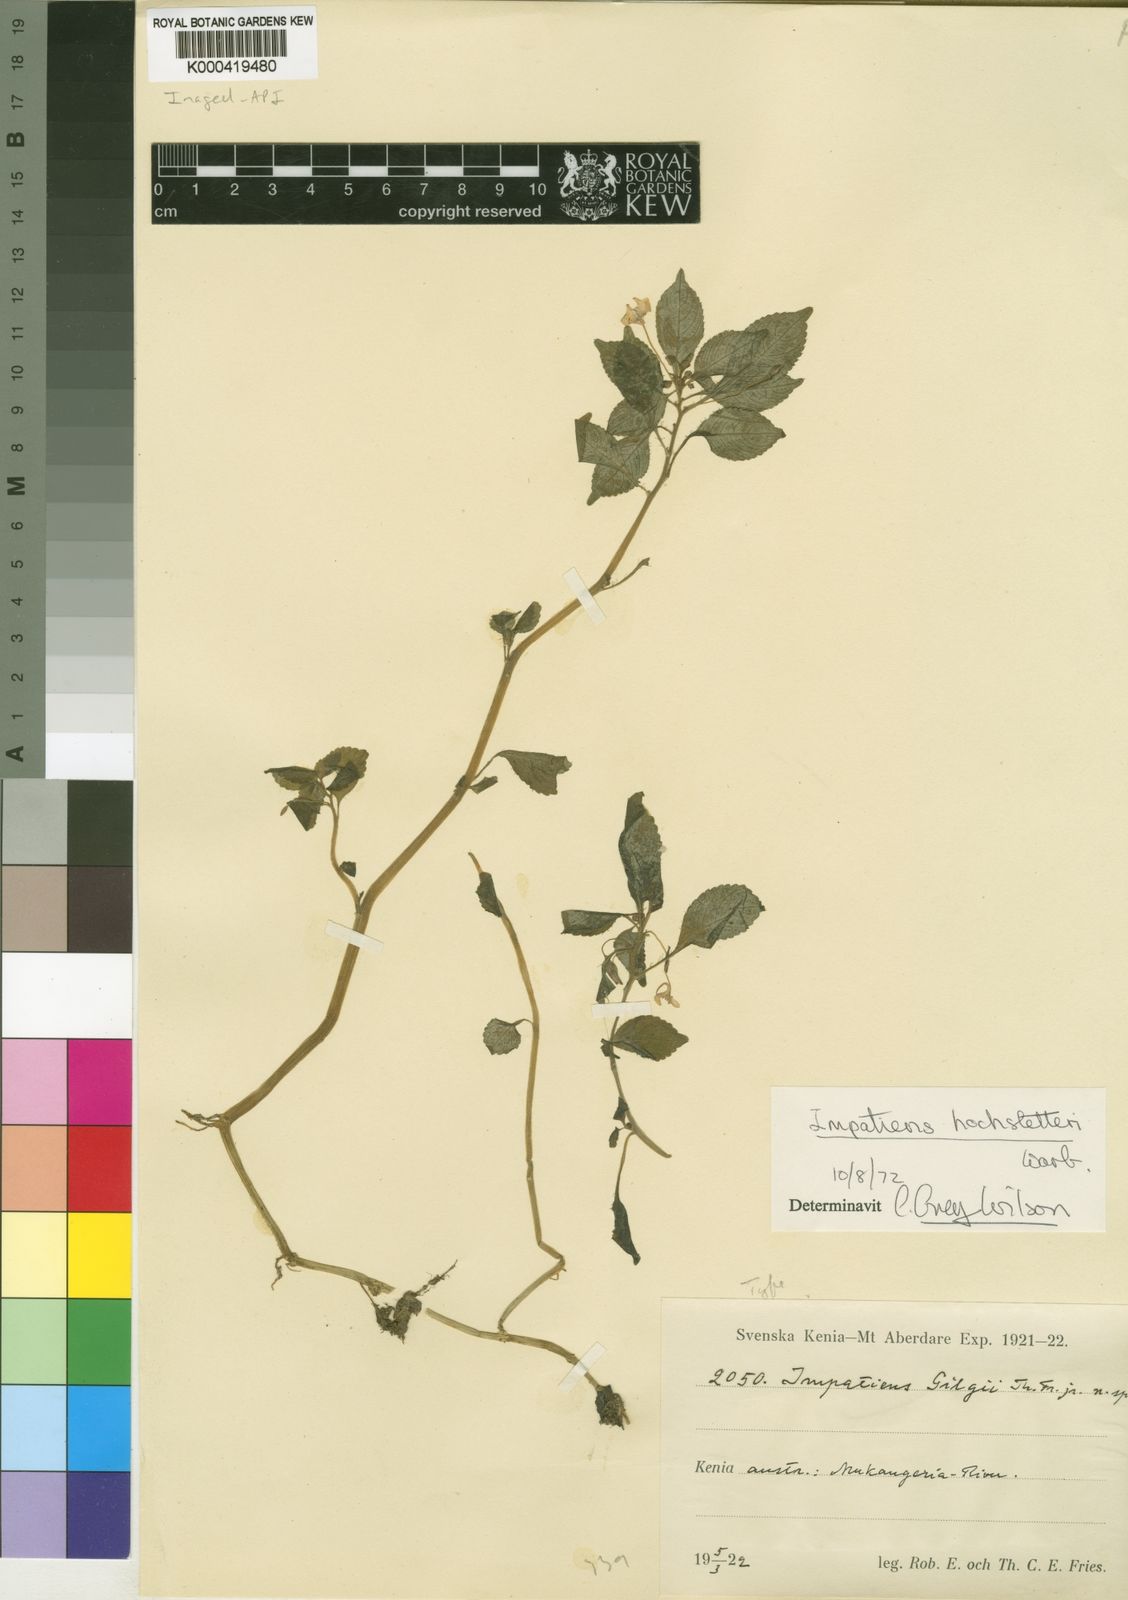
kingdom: Plantae
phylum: Tracheophyta
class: Magnoliopsida
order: Ericales
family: Balsaminaceae
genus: Impatiens
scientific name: Impatiens hochstetteri
